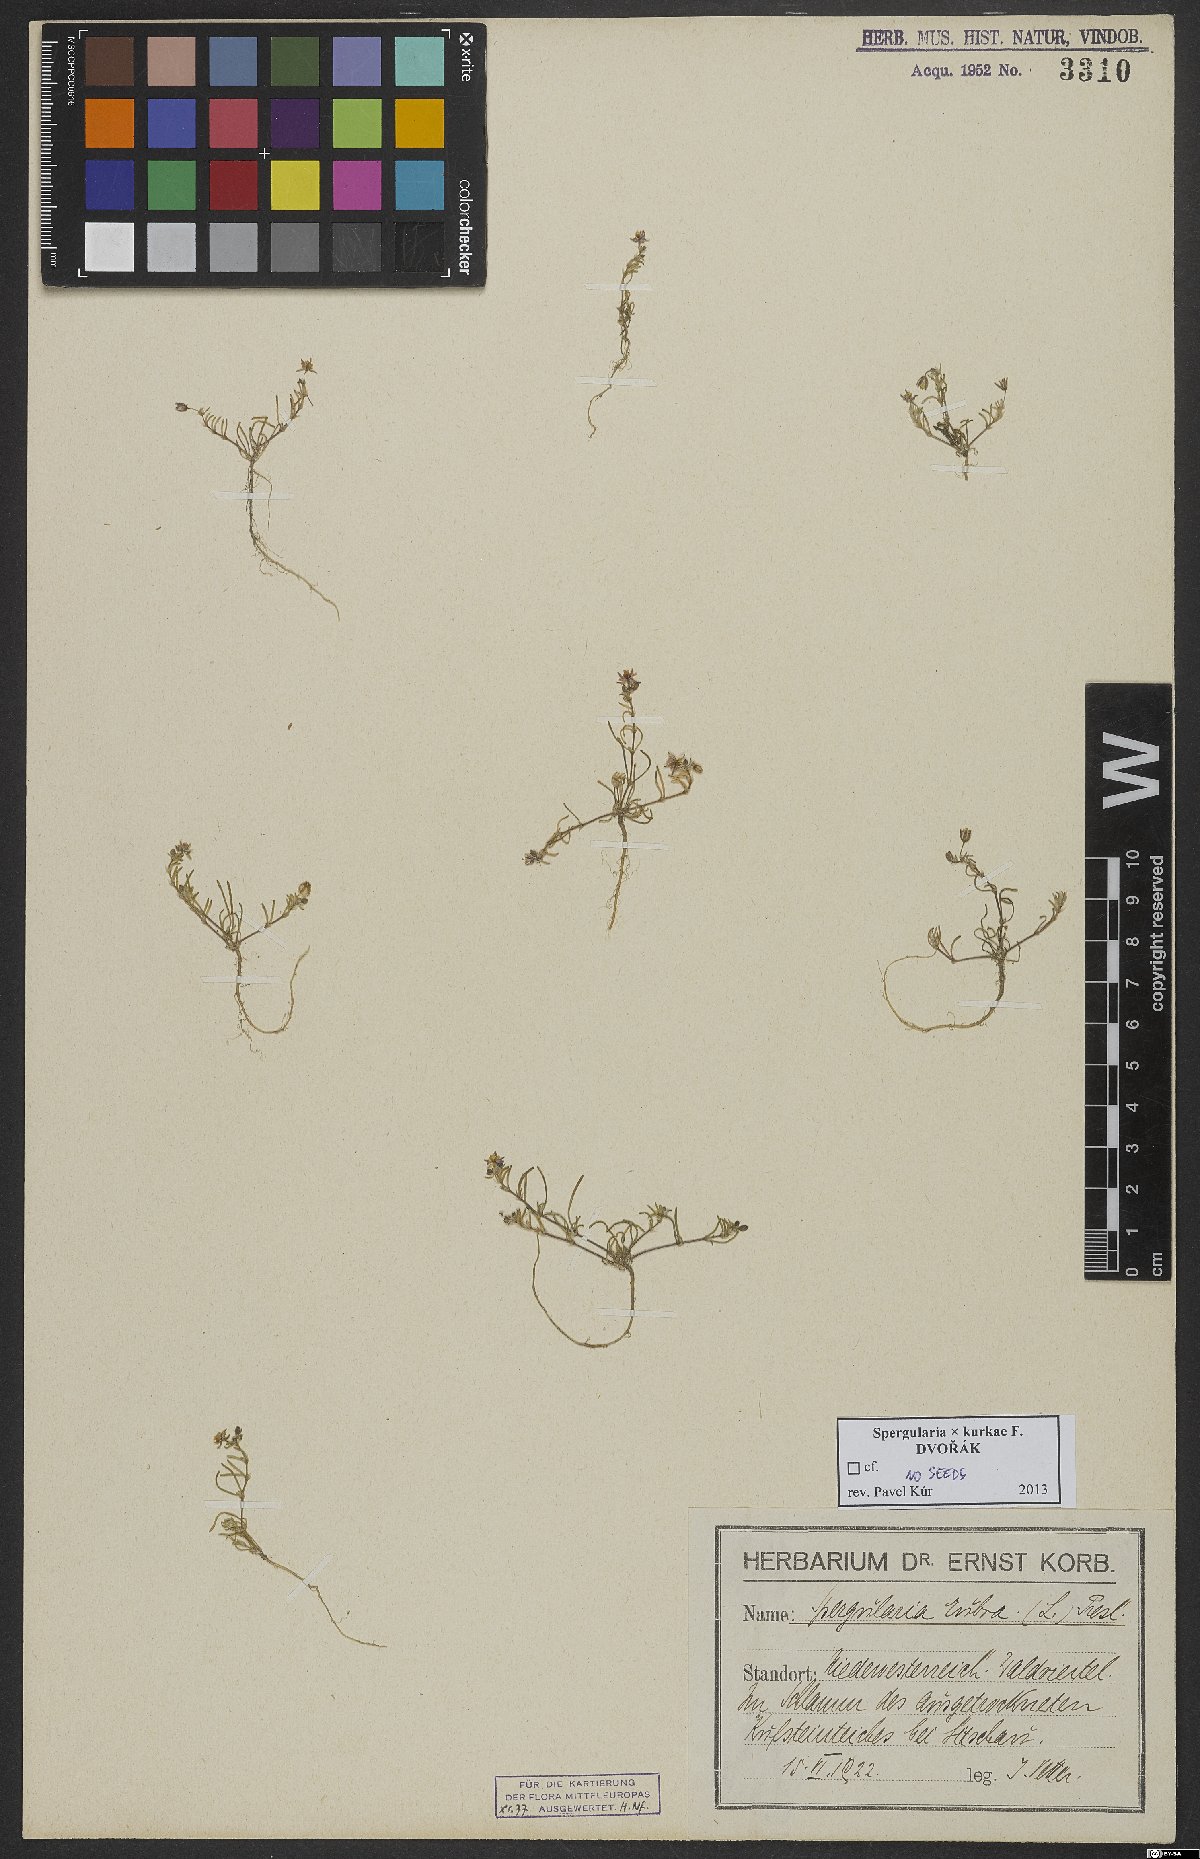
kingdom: Plantae
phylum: Tracheophyta
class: Magnoliopsida
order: Caryophyllales
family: Caryophyllaceae
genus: Spergularia
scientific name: Spergularia kurkae
